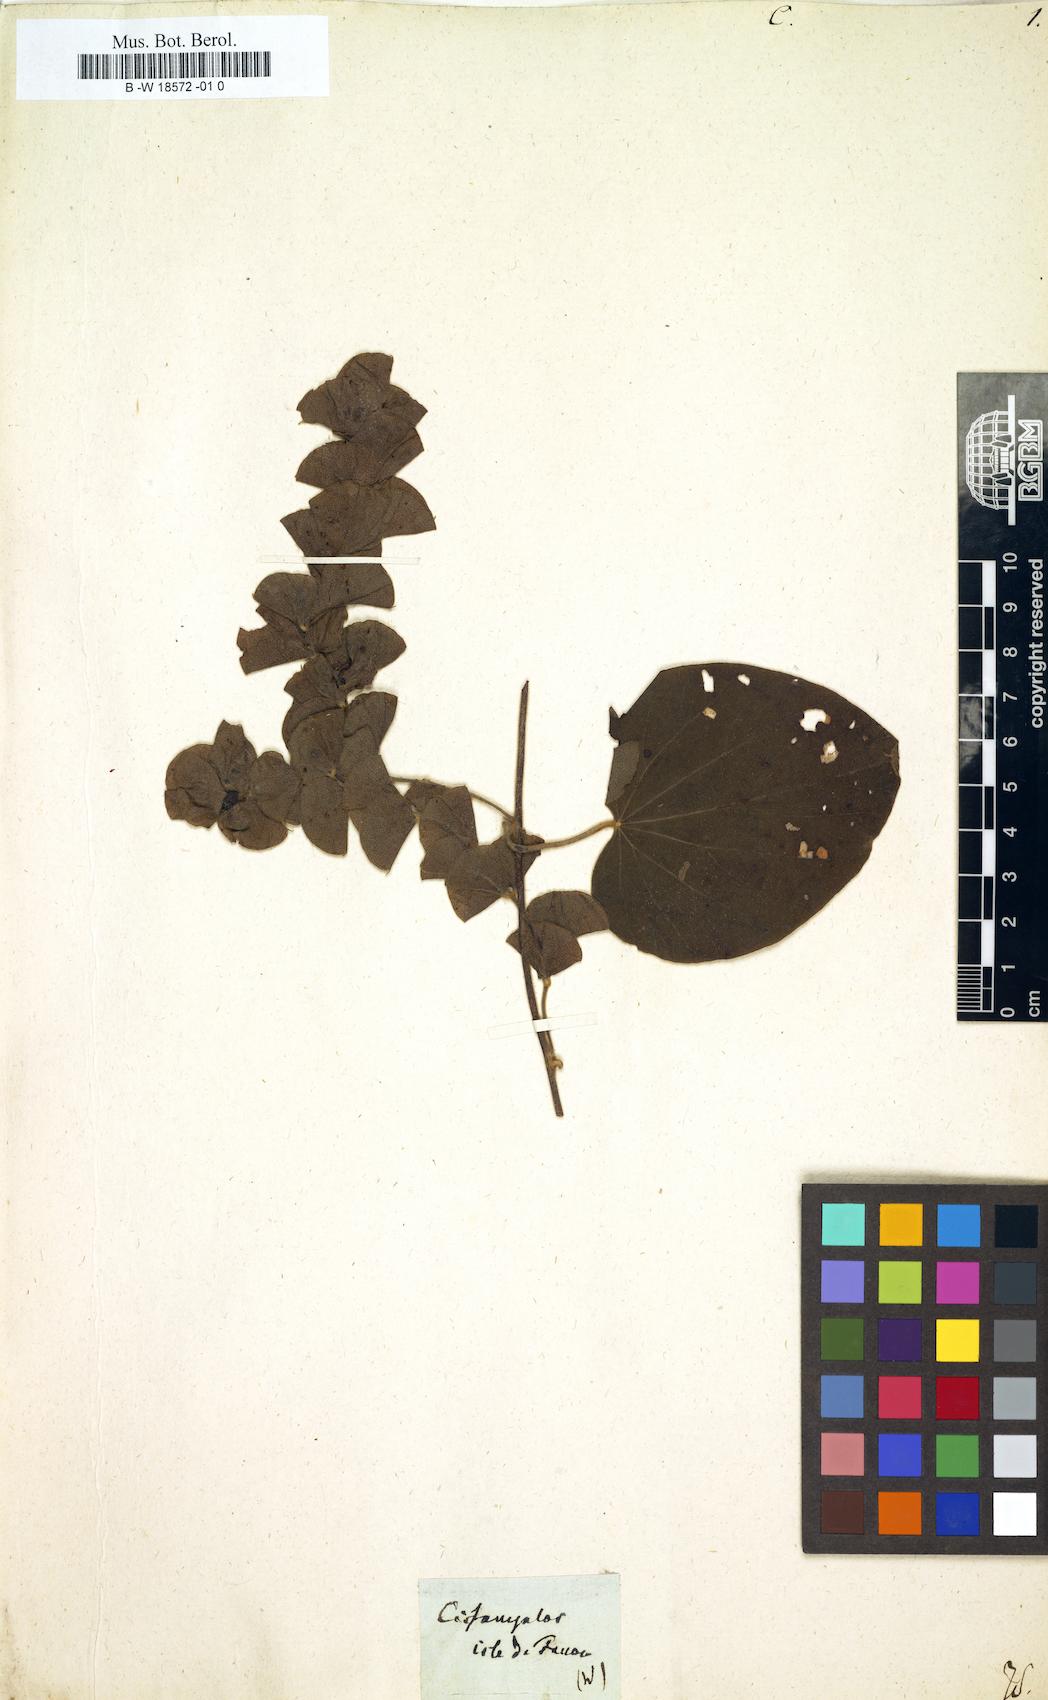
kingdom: Plantae
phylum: Tracheophyta
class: Magnoliopsida
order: Ranunculales
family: Menispermaceae
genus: Cissampelos
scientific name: Cissampelos
